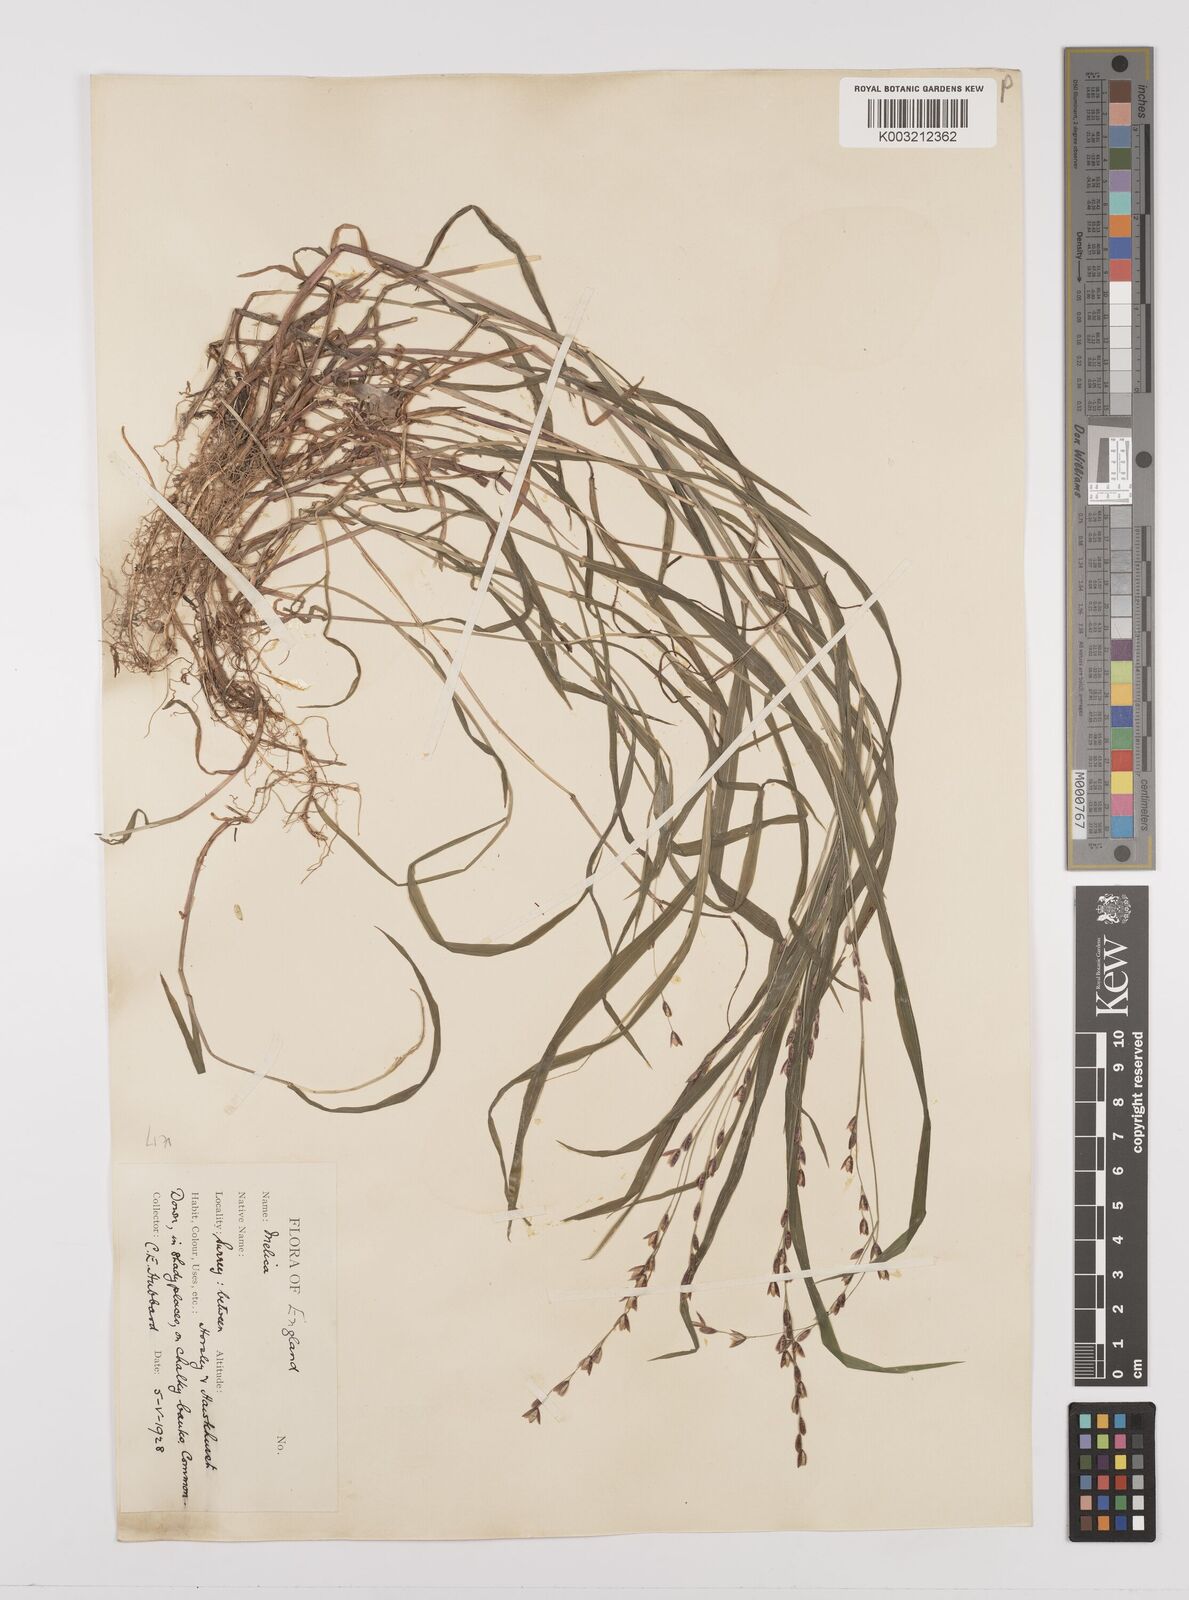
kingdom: Plantae
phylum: Tracheophyta
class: Liliopsida
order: Poales
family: Poaceae
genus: Melica
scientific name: Melica uniflora
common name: Wood melick
